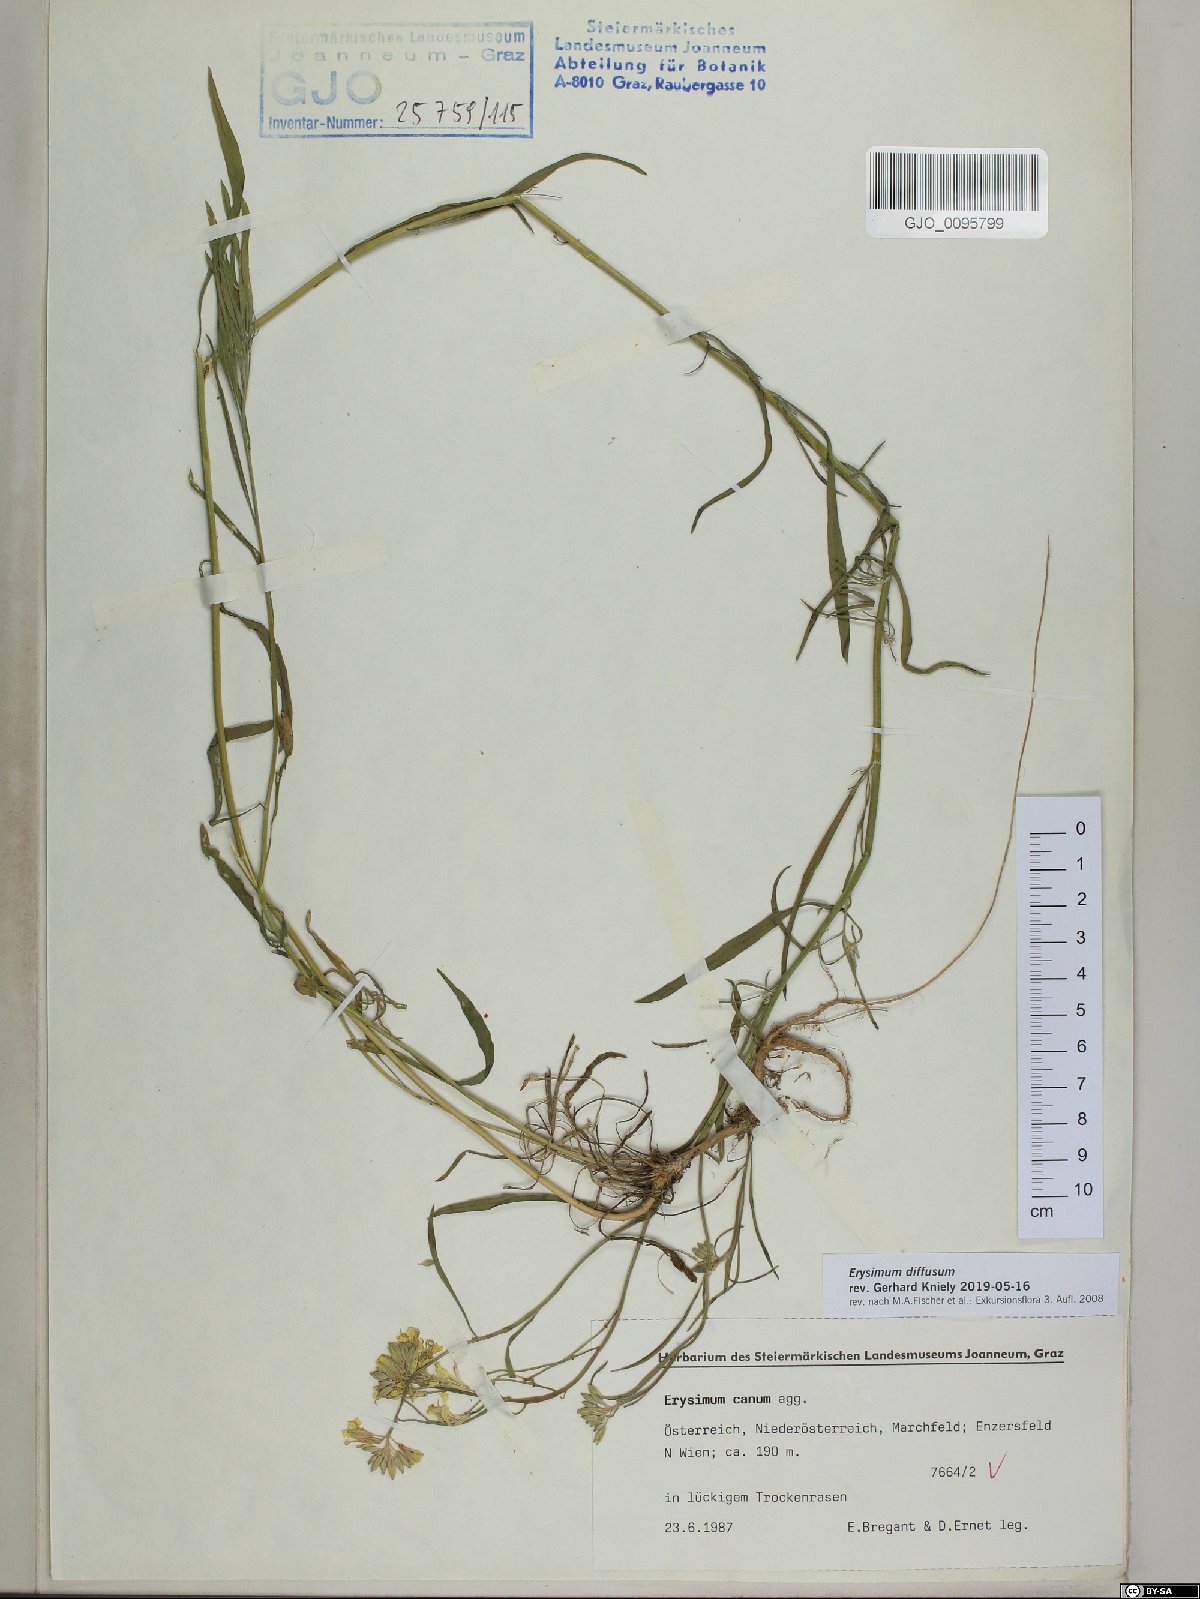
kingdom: Plantae
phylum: Tracheophyta
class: Magnoliopsida
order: Brassicales
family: Brassicaceae
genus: Erysimum
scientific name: Erysimum diffusum
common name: Diffuse wallflower
